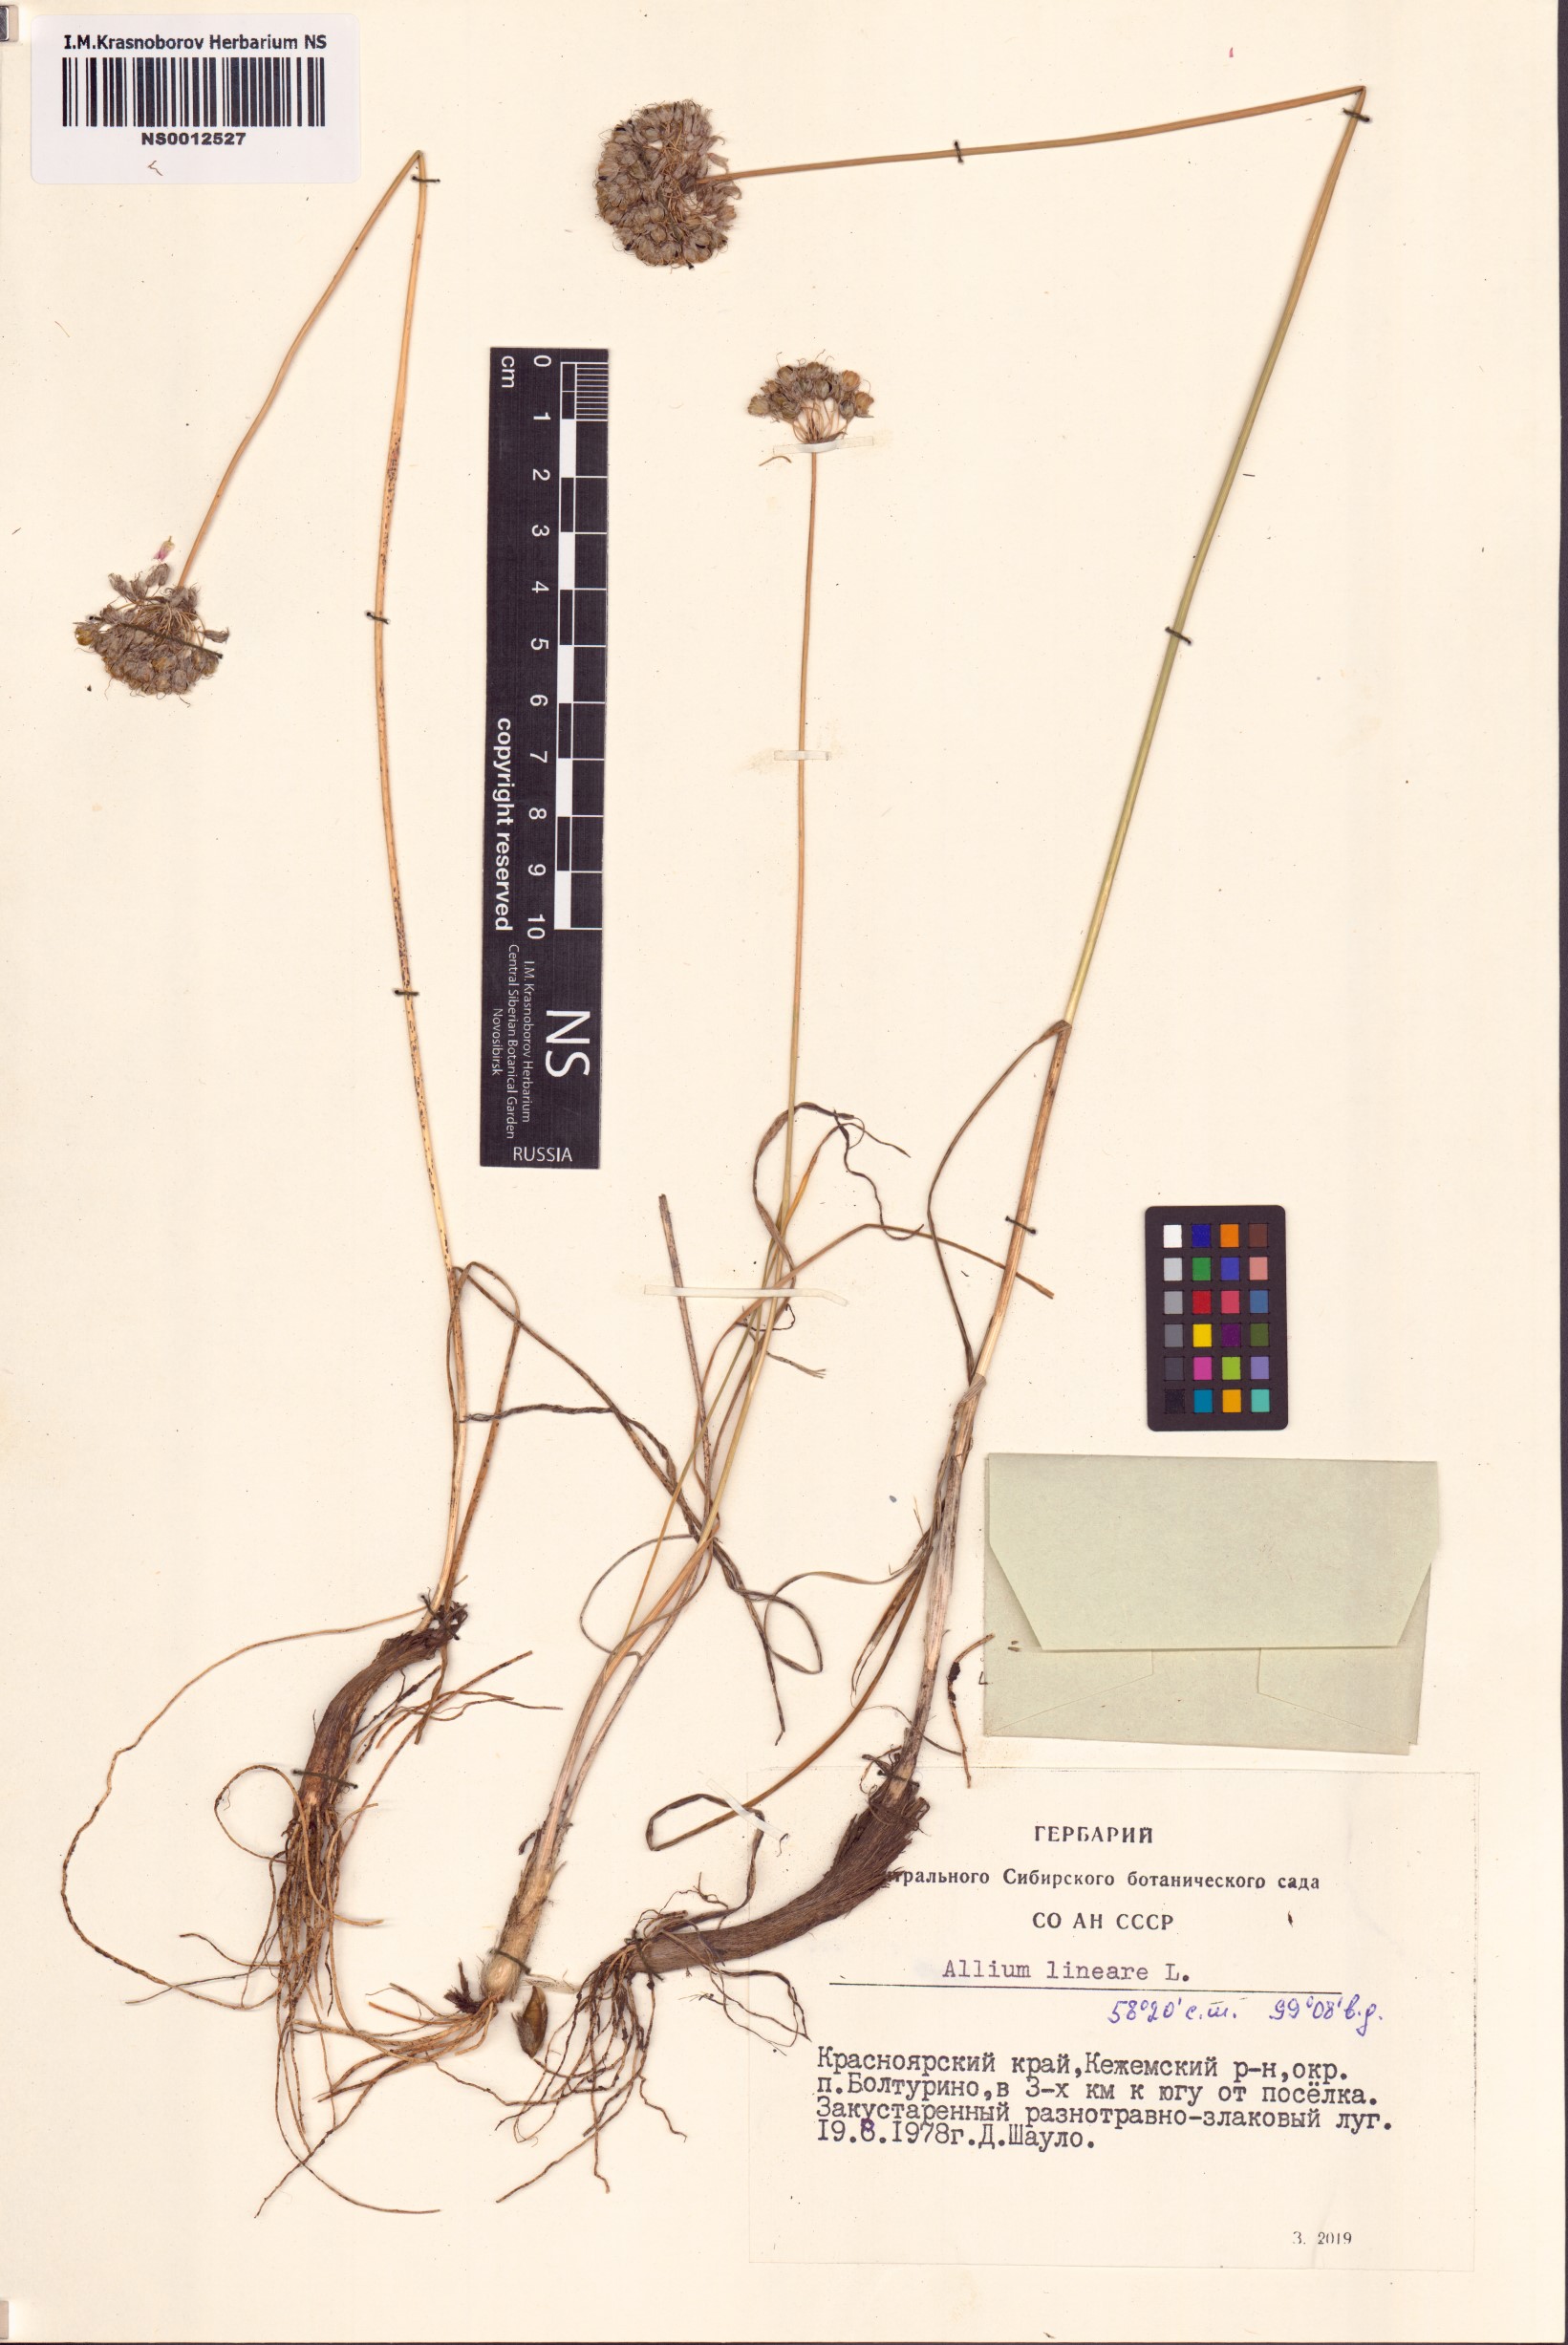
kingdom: Plantae
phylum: Tracheophyta
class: Liliopsida
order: Asparagales
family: Amaryllidaceae
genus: Allium
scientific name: Allium lineare
